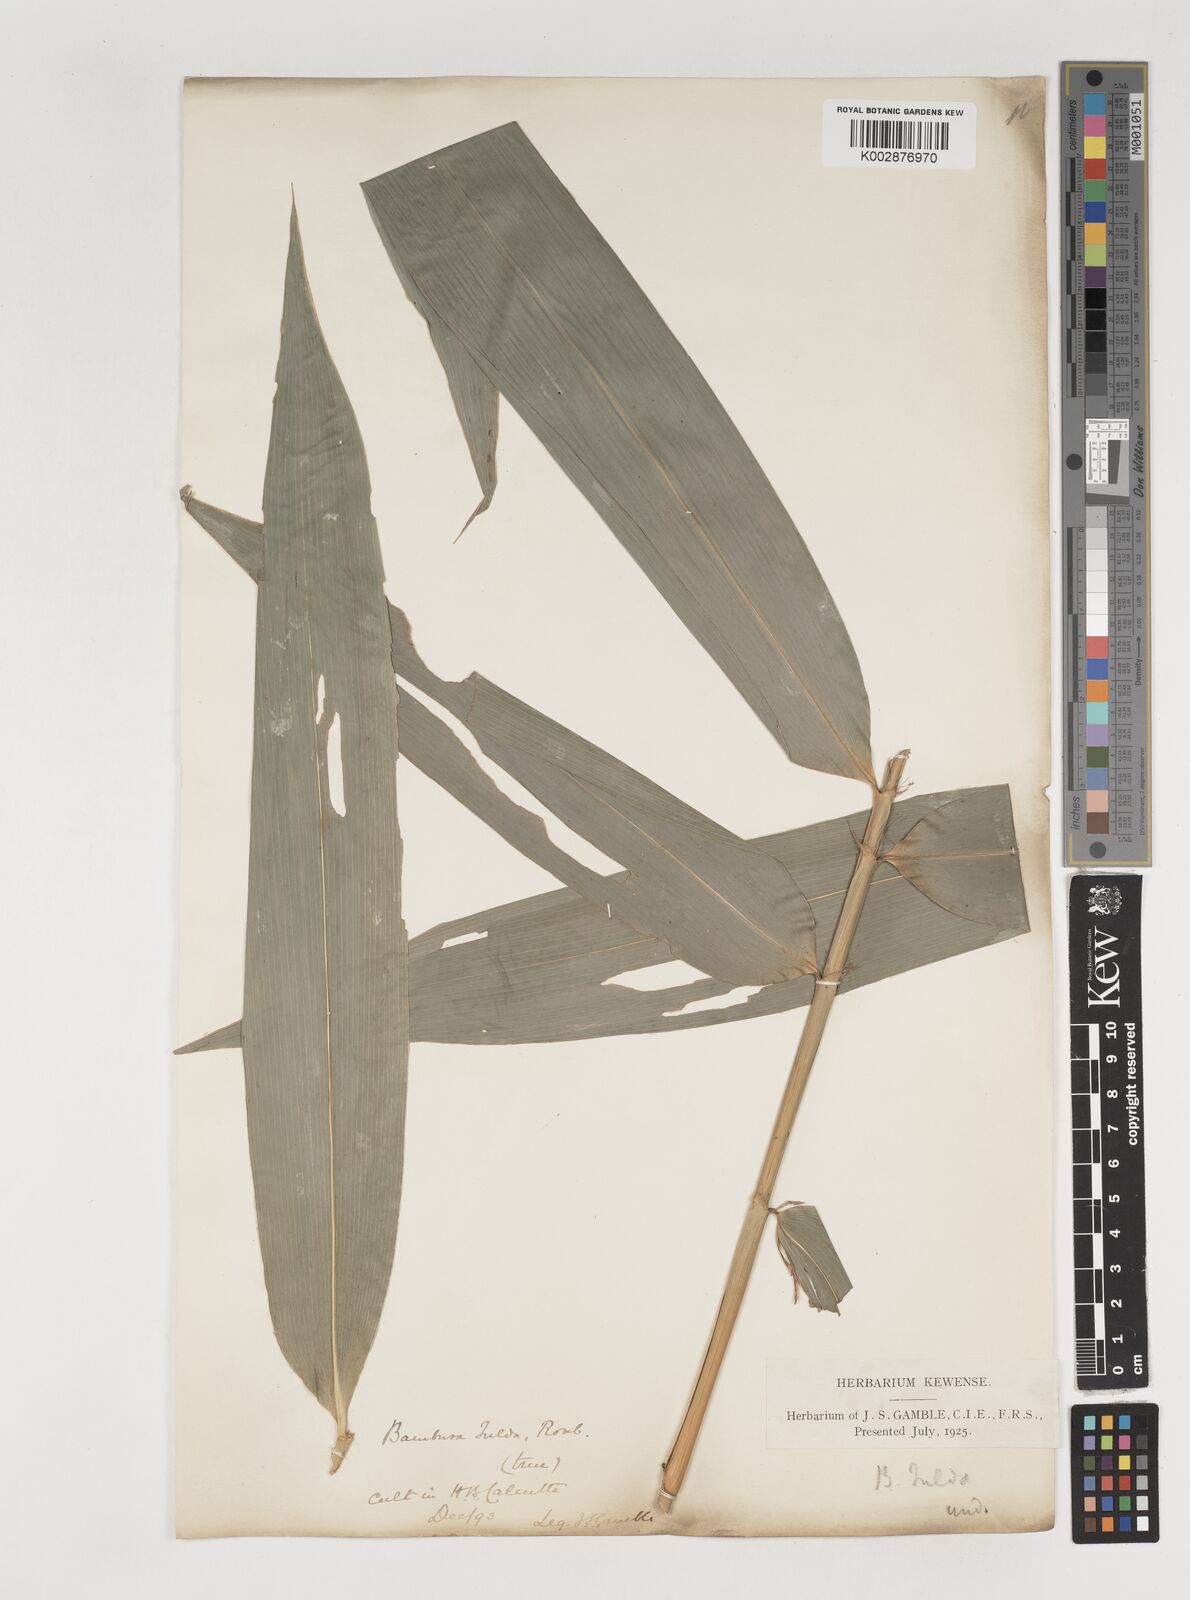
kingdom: Plantae
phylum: Tracheophyta
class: Liliopsida
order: Poales
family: Poaceae
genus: Bambusa
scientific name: Bambusa tulda
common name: Bengal bamboo
